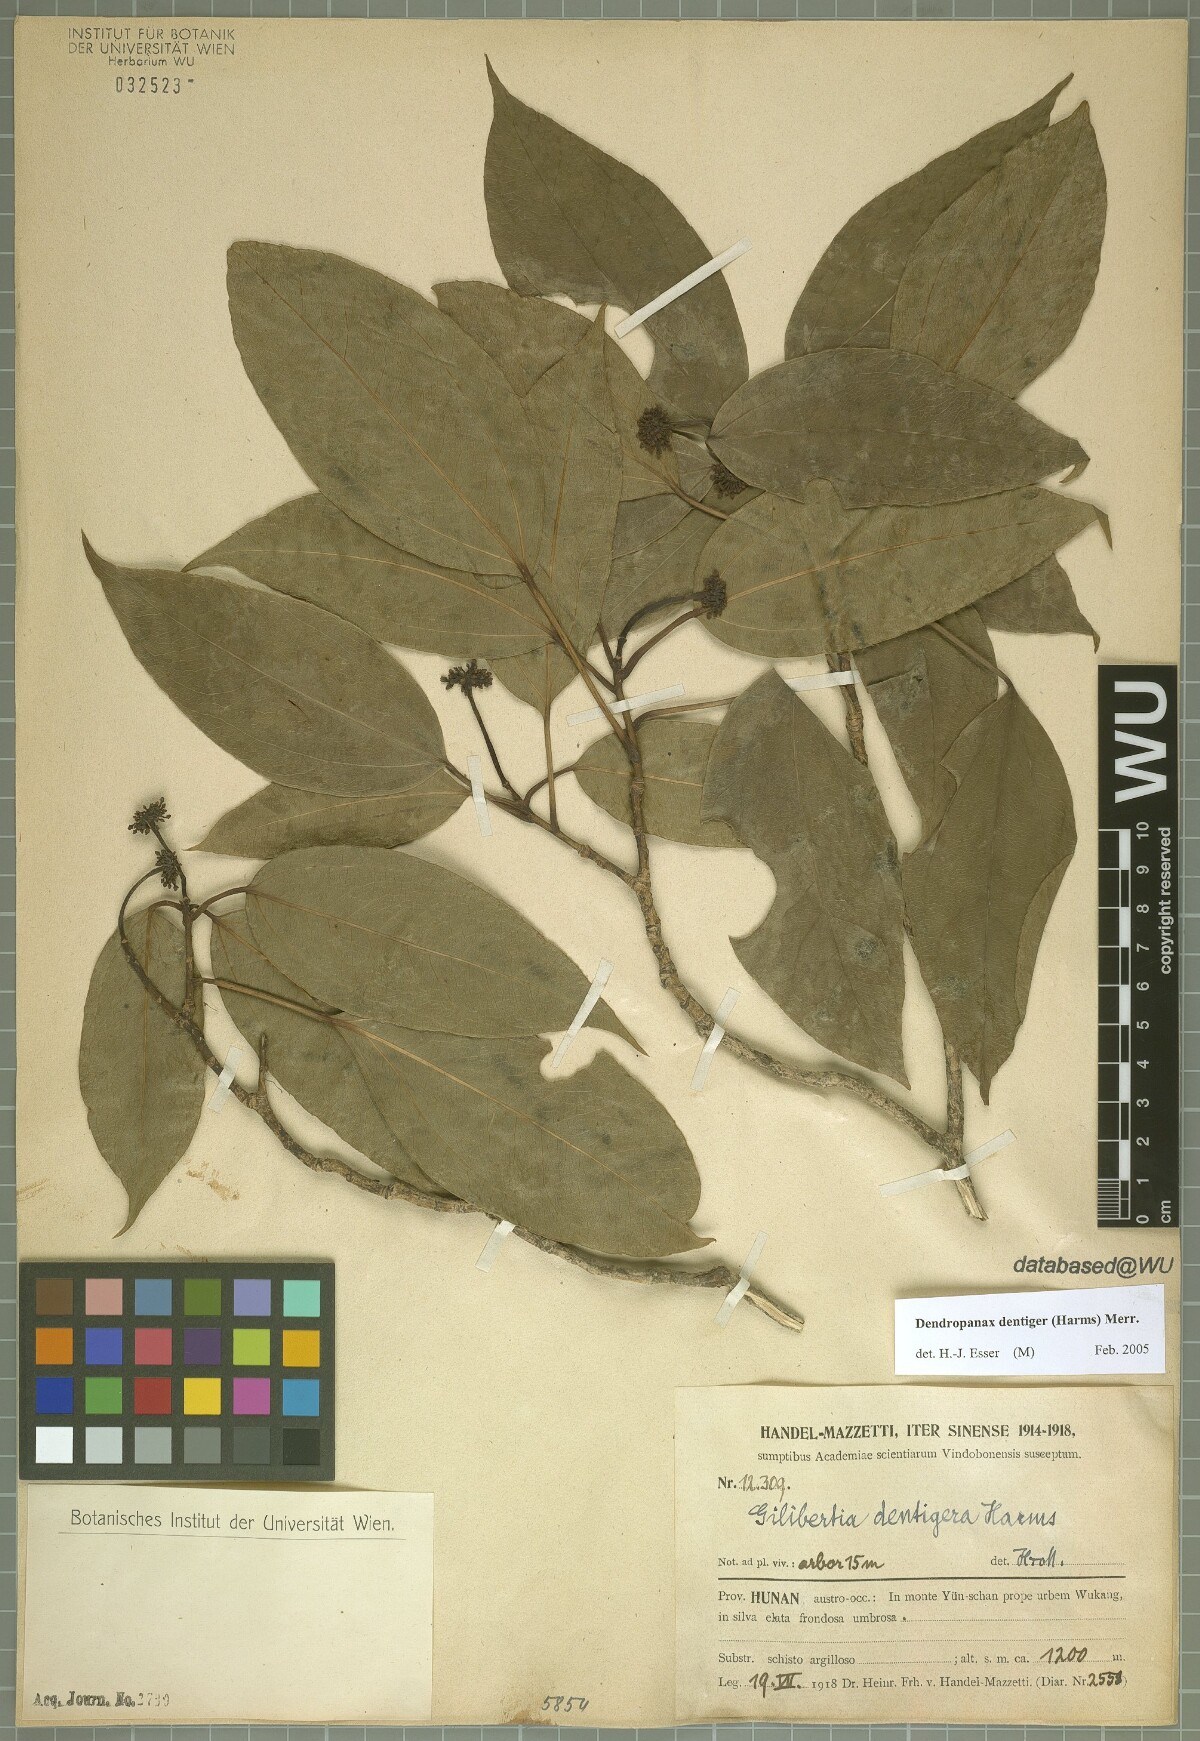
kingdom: Plantae
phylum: Tracheophyta
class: Magnoliopsida
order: Apiales
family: Araliaceae
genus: Dendropanax
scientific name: Dendropanax dentiger
